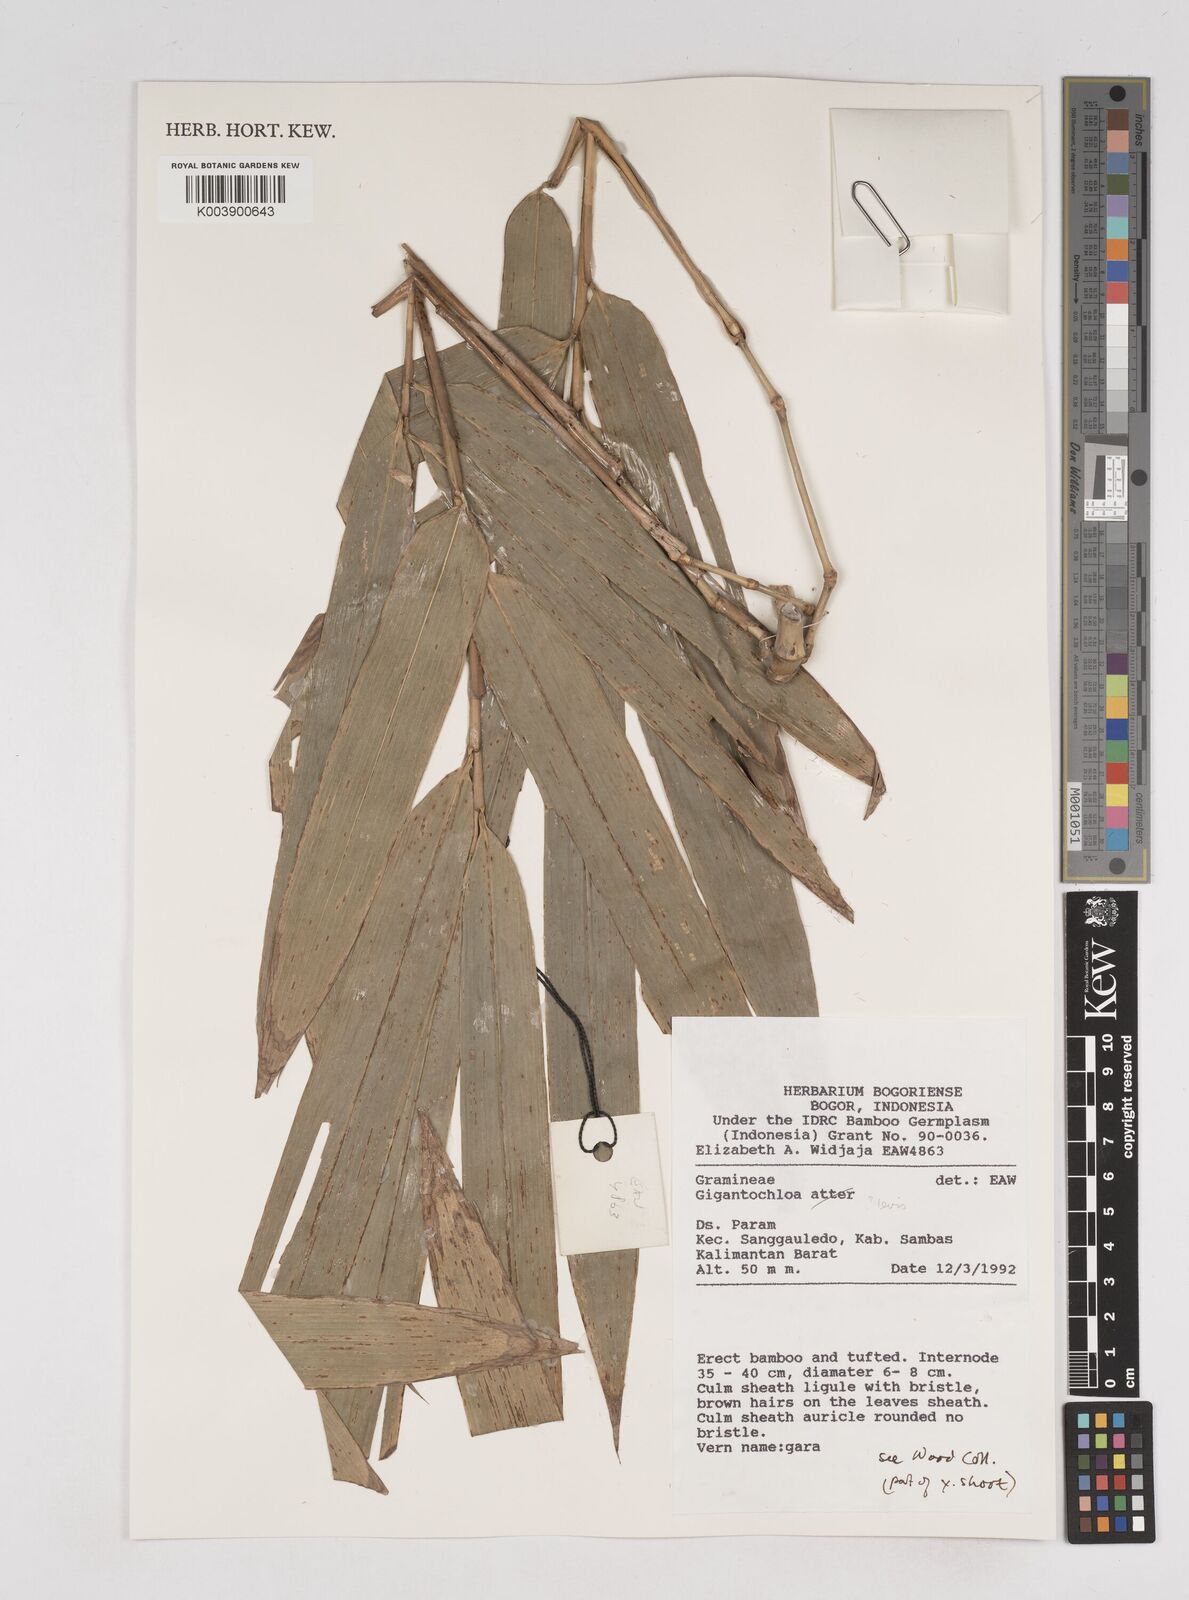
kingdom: Plantae
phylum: Tracheophyta
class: Liliopsida
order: Poales
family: Poaceae
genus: Gigantochloa
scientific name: Gigantochloa levis
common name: Smooth-shoot gigantochloa
